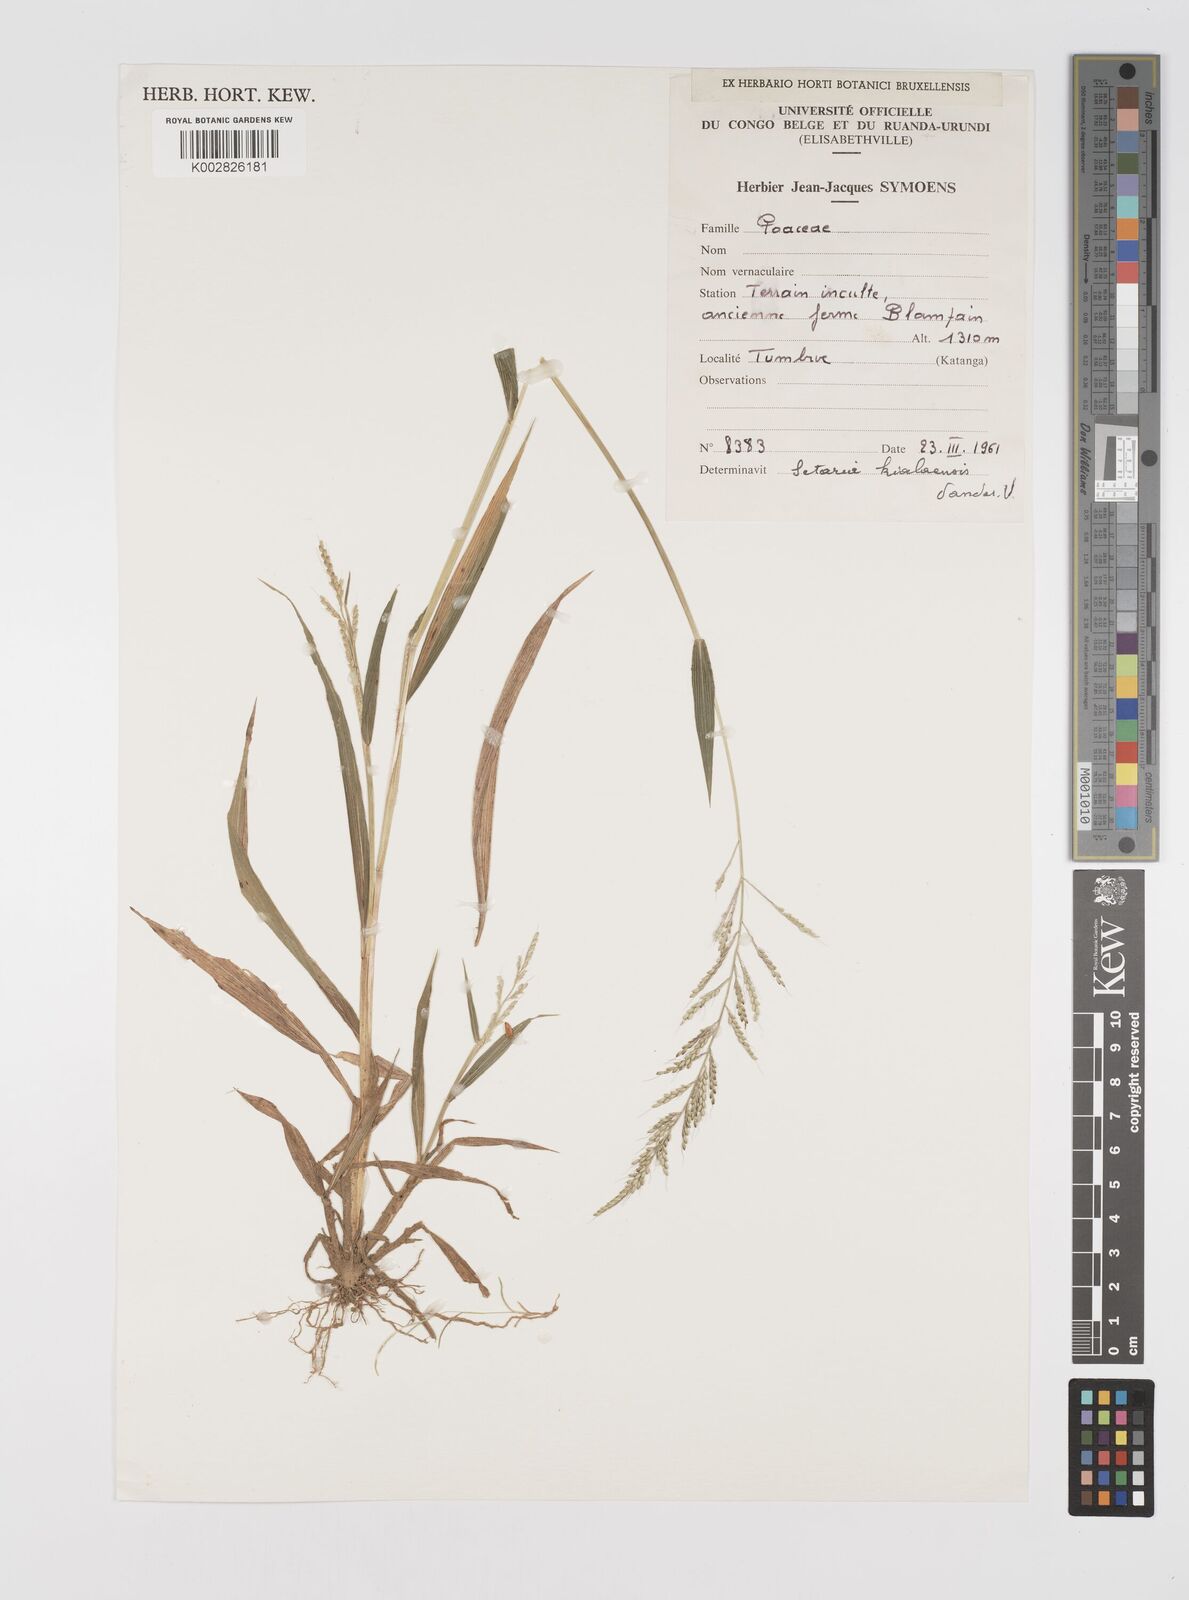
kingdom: Plantae
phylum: Tracheophyta
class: Liliopsida
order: Poales
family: Poaceae
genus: Setaria
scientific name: Setaria homonyma
